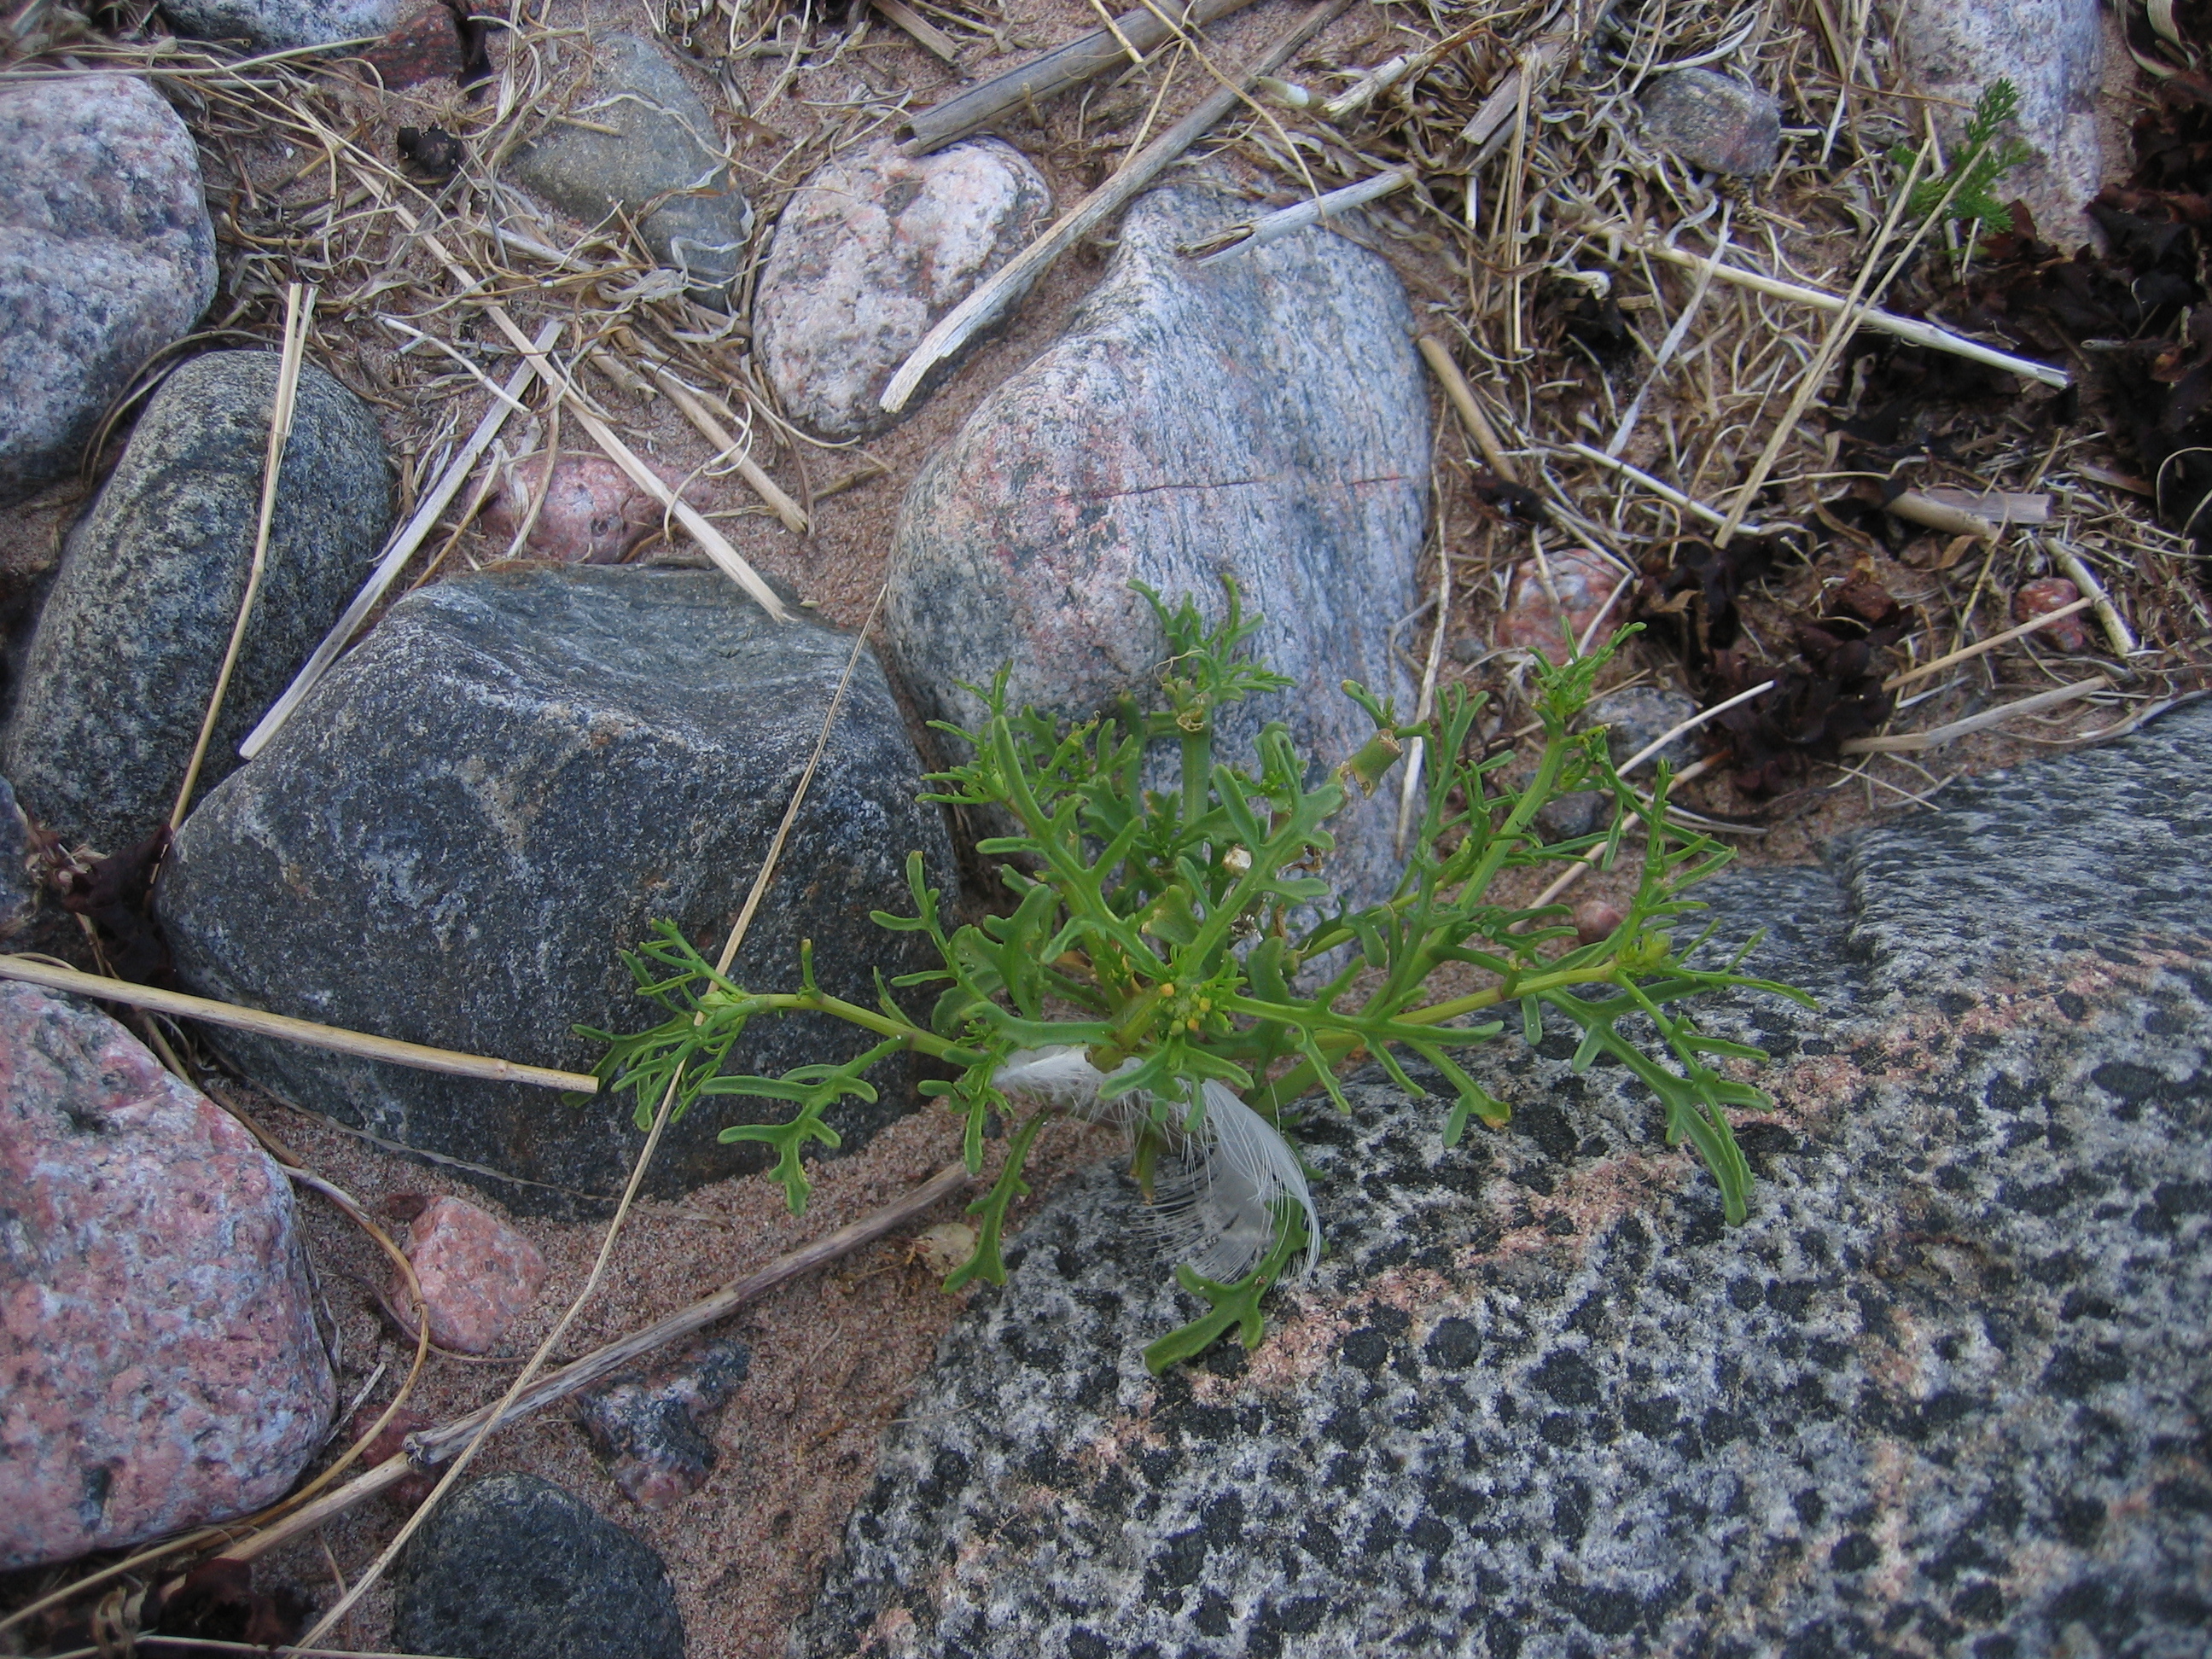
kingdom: Plantae
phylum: Tracheophyta
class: Magnoliopsida
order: Brassicales
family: Brassicaceae
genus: Cakile
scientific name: Cakile maritima
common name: Sea rocket
